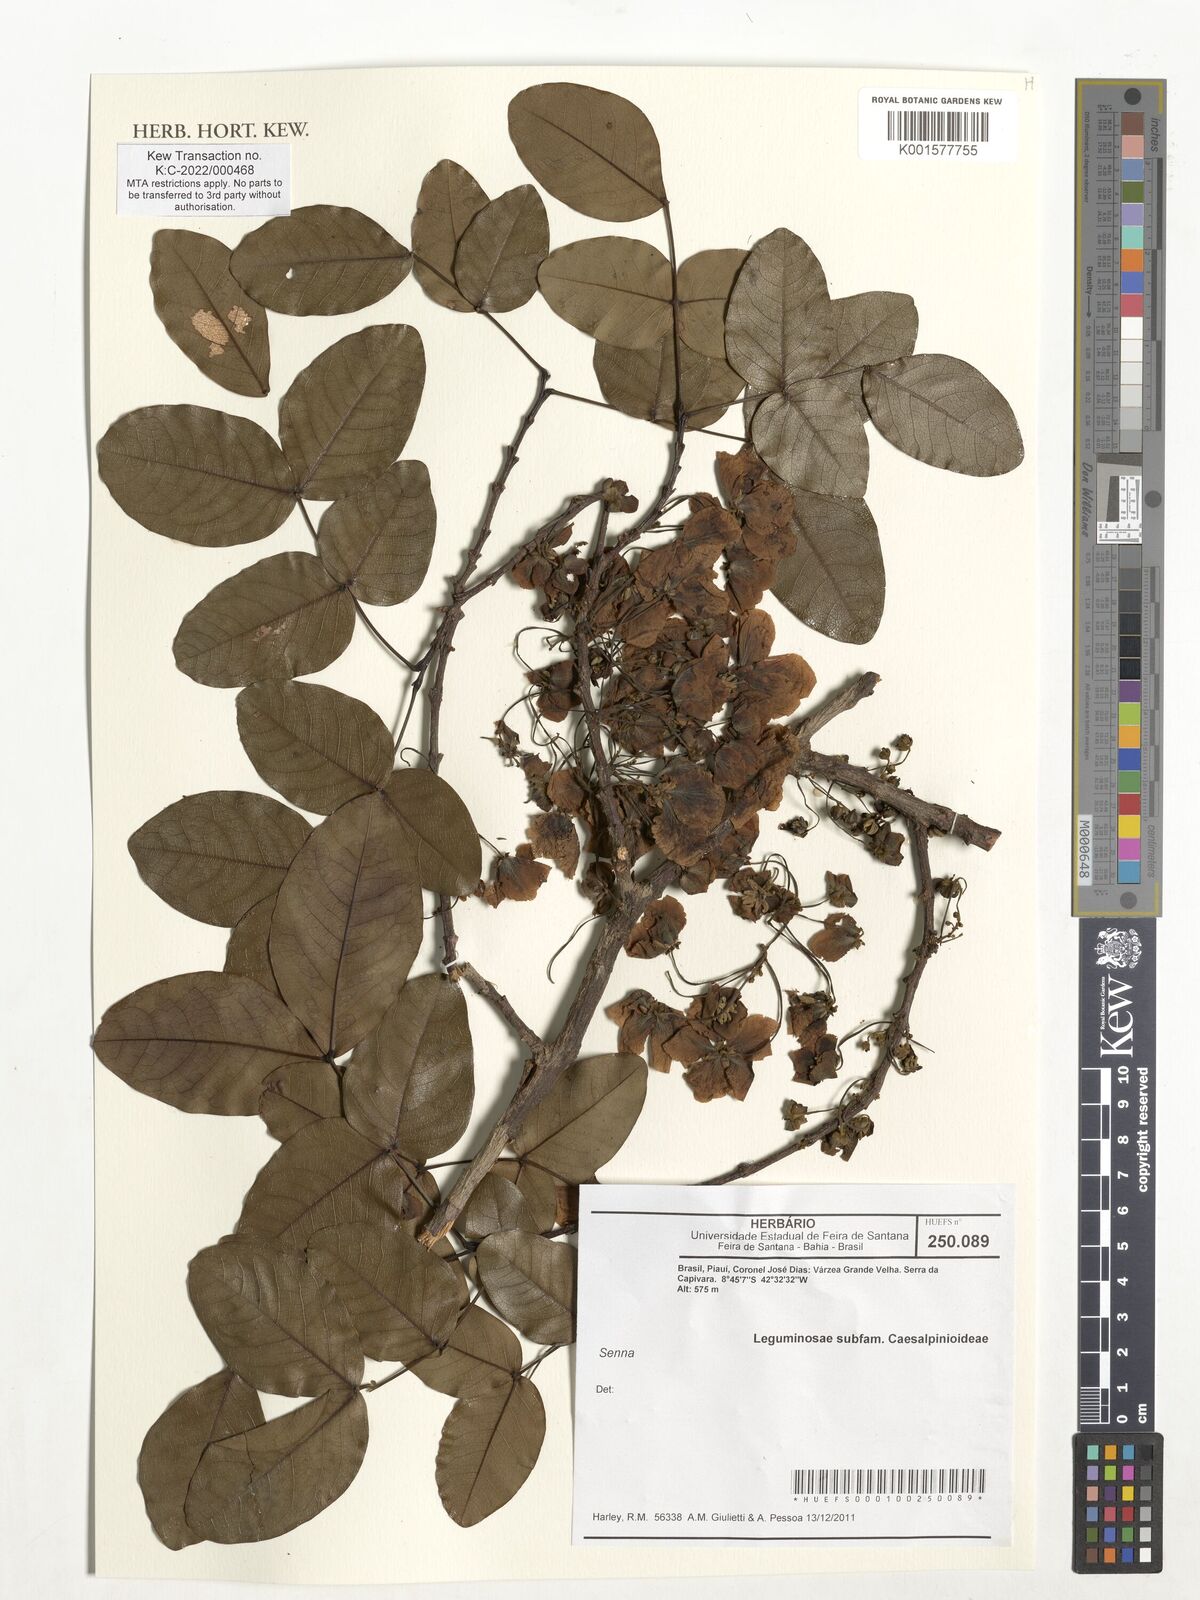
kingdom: Plantae
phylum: Tracheophyta
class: Magnoliopsida
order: Fabales
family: Fabaceae
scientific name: Fabaceae
